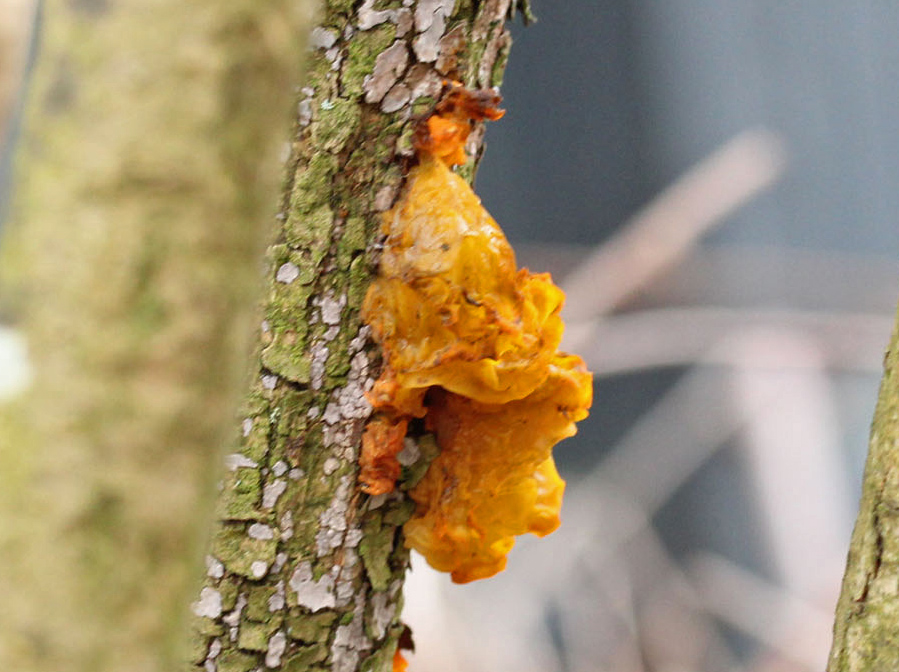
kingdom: Fungi
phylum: Basidiomycota
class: Tremellomycetes
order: Tremellales
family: Tremellaceae
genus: Tremella
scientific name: Tremella mesenterica
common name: gul bævresvamp
